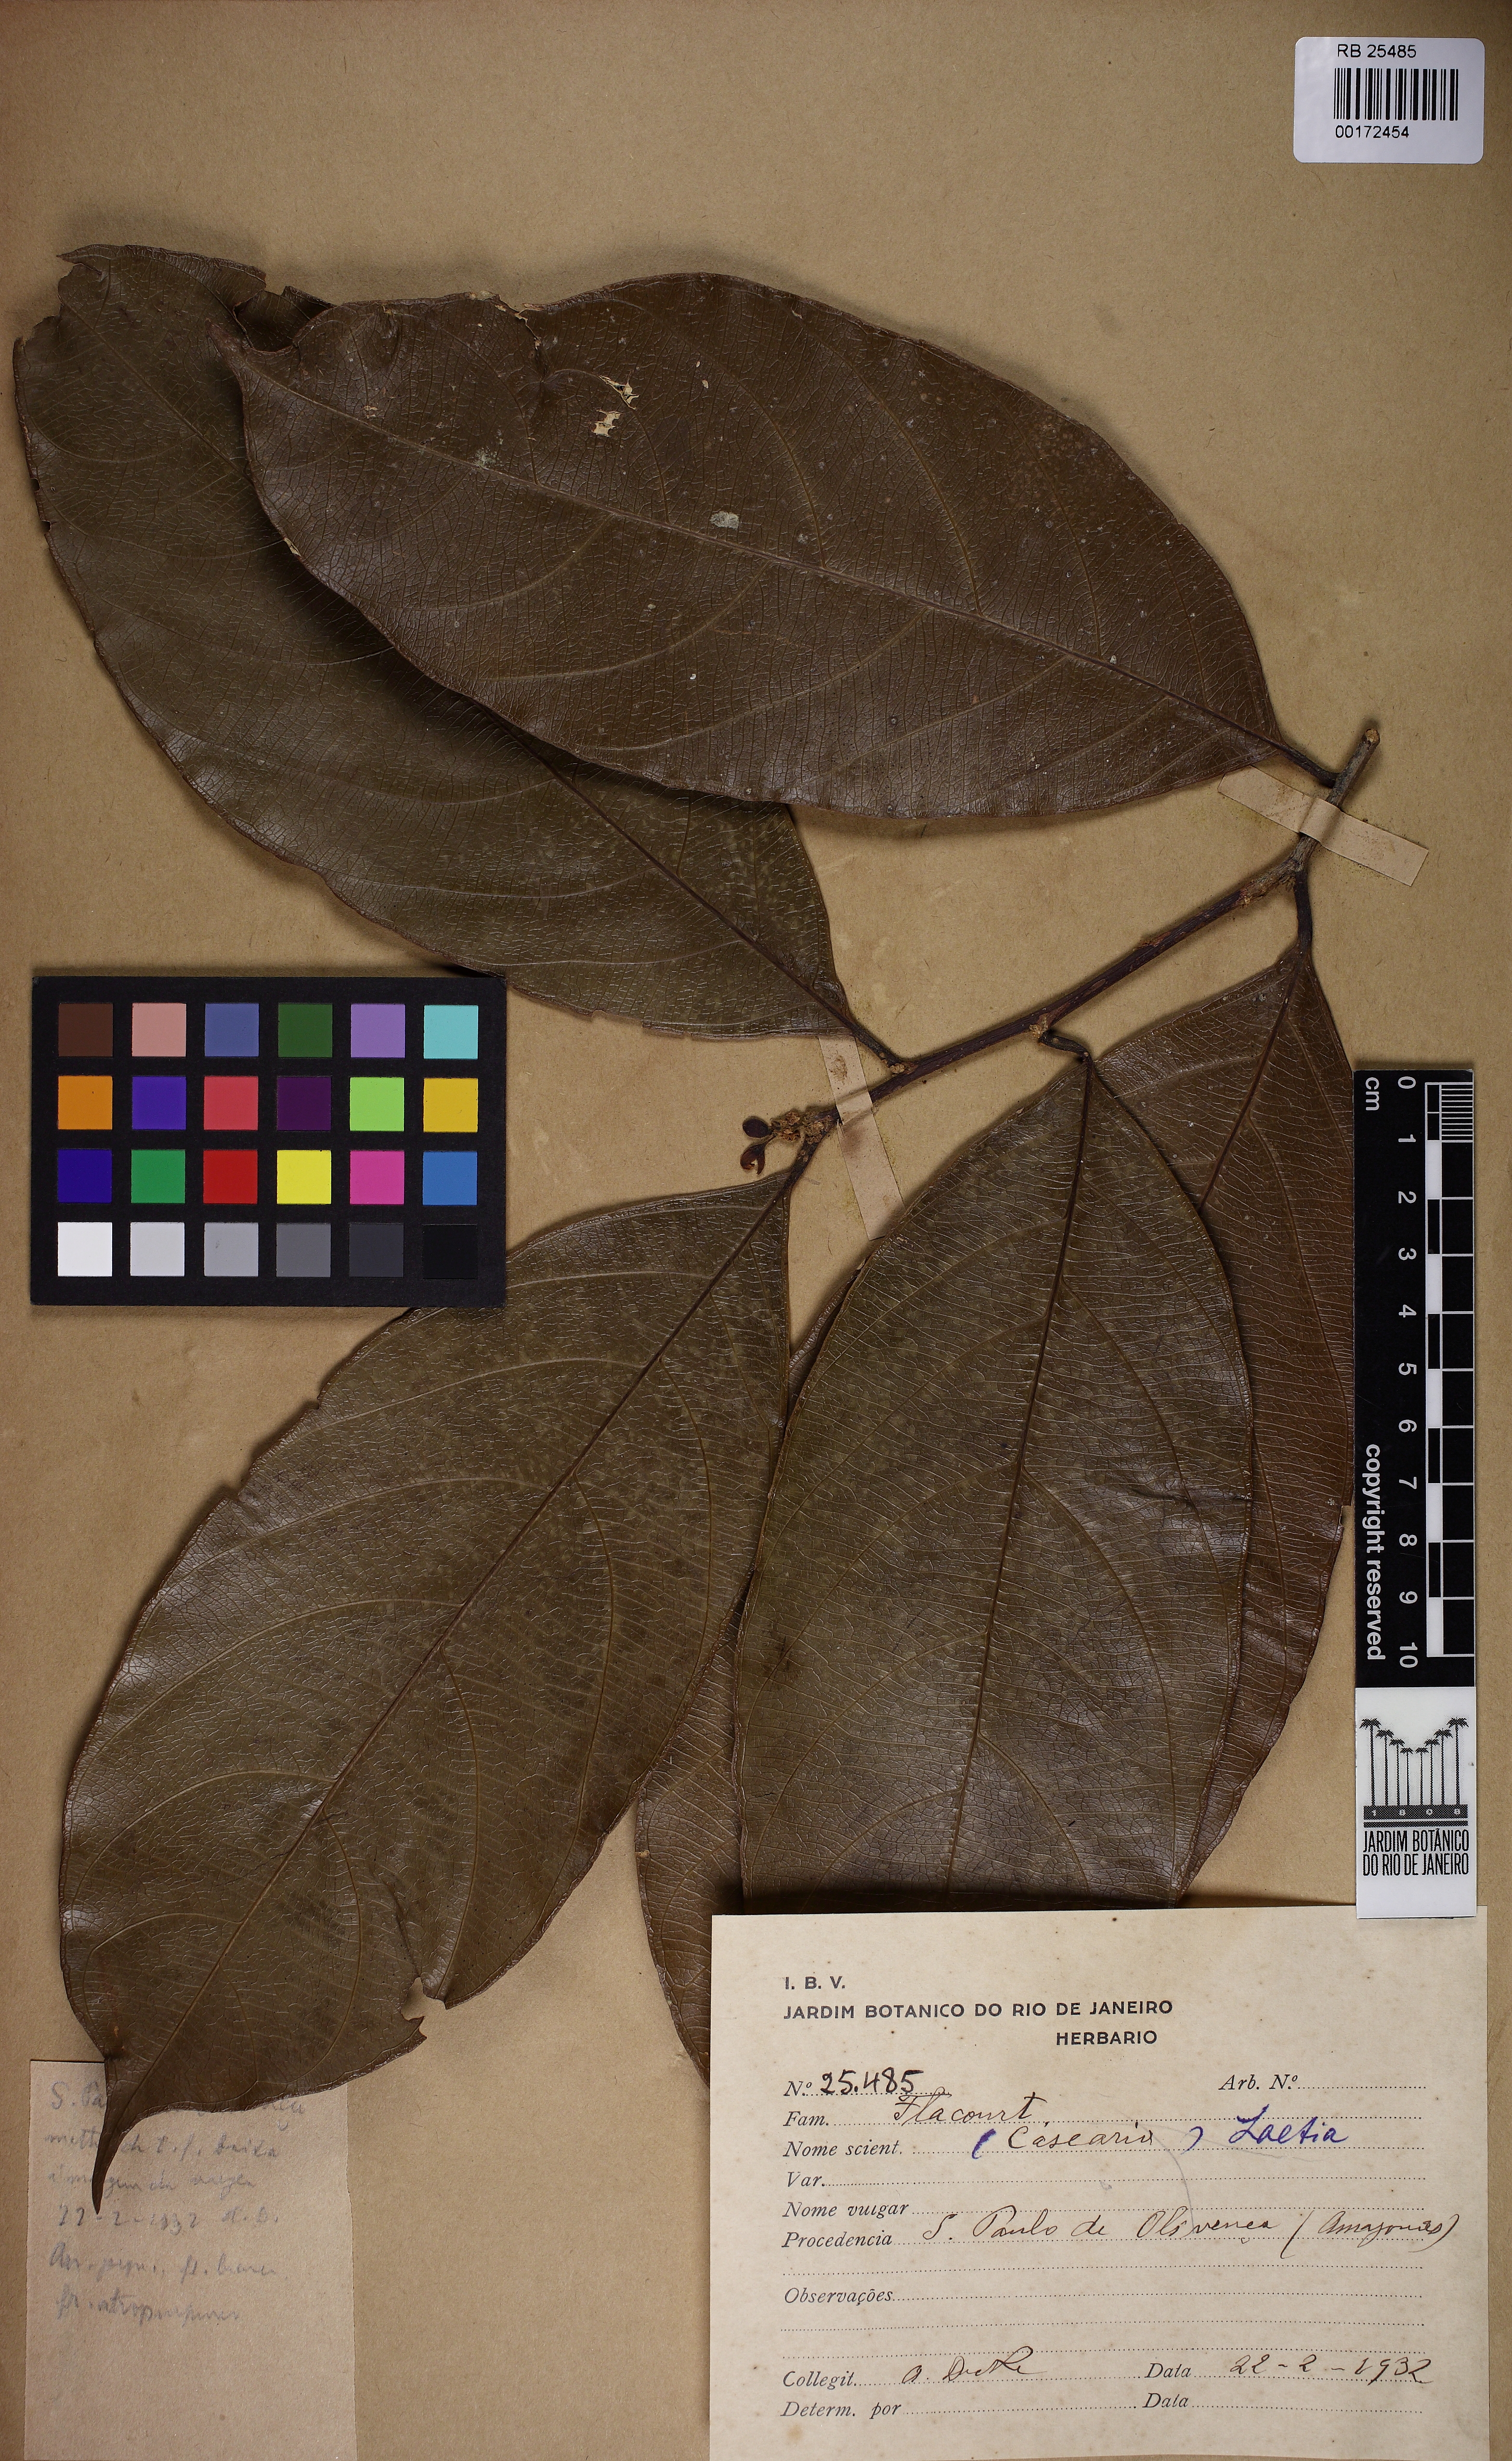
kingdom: Plantae
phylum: Tracheophyta
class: Magnoliopsida
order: Malpighiales
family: Flacourtiaceae
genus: Laetia
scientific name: Laetia
